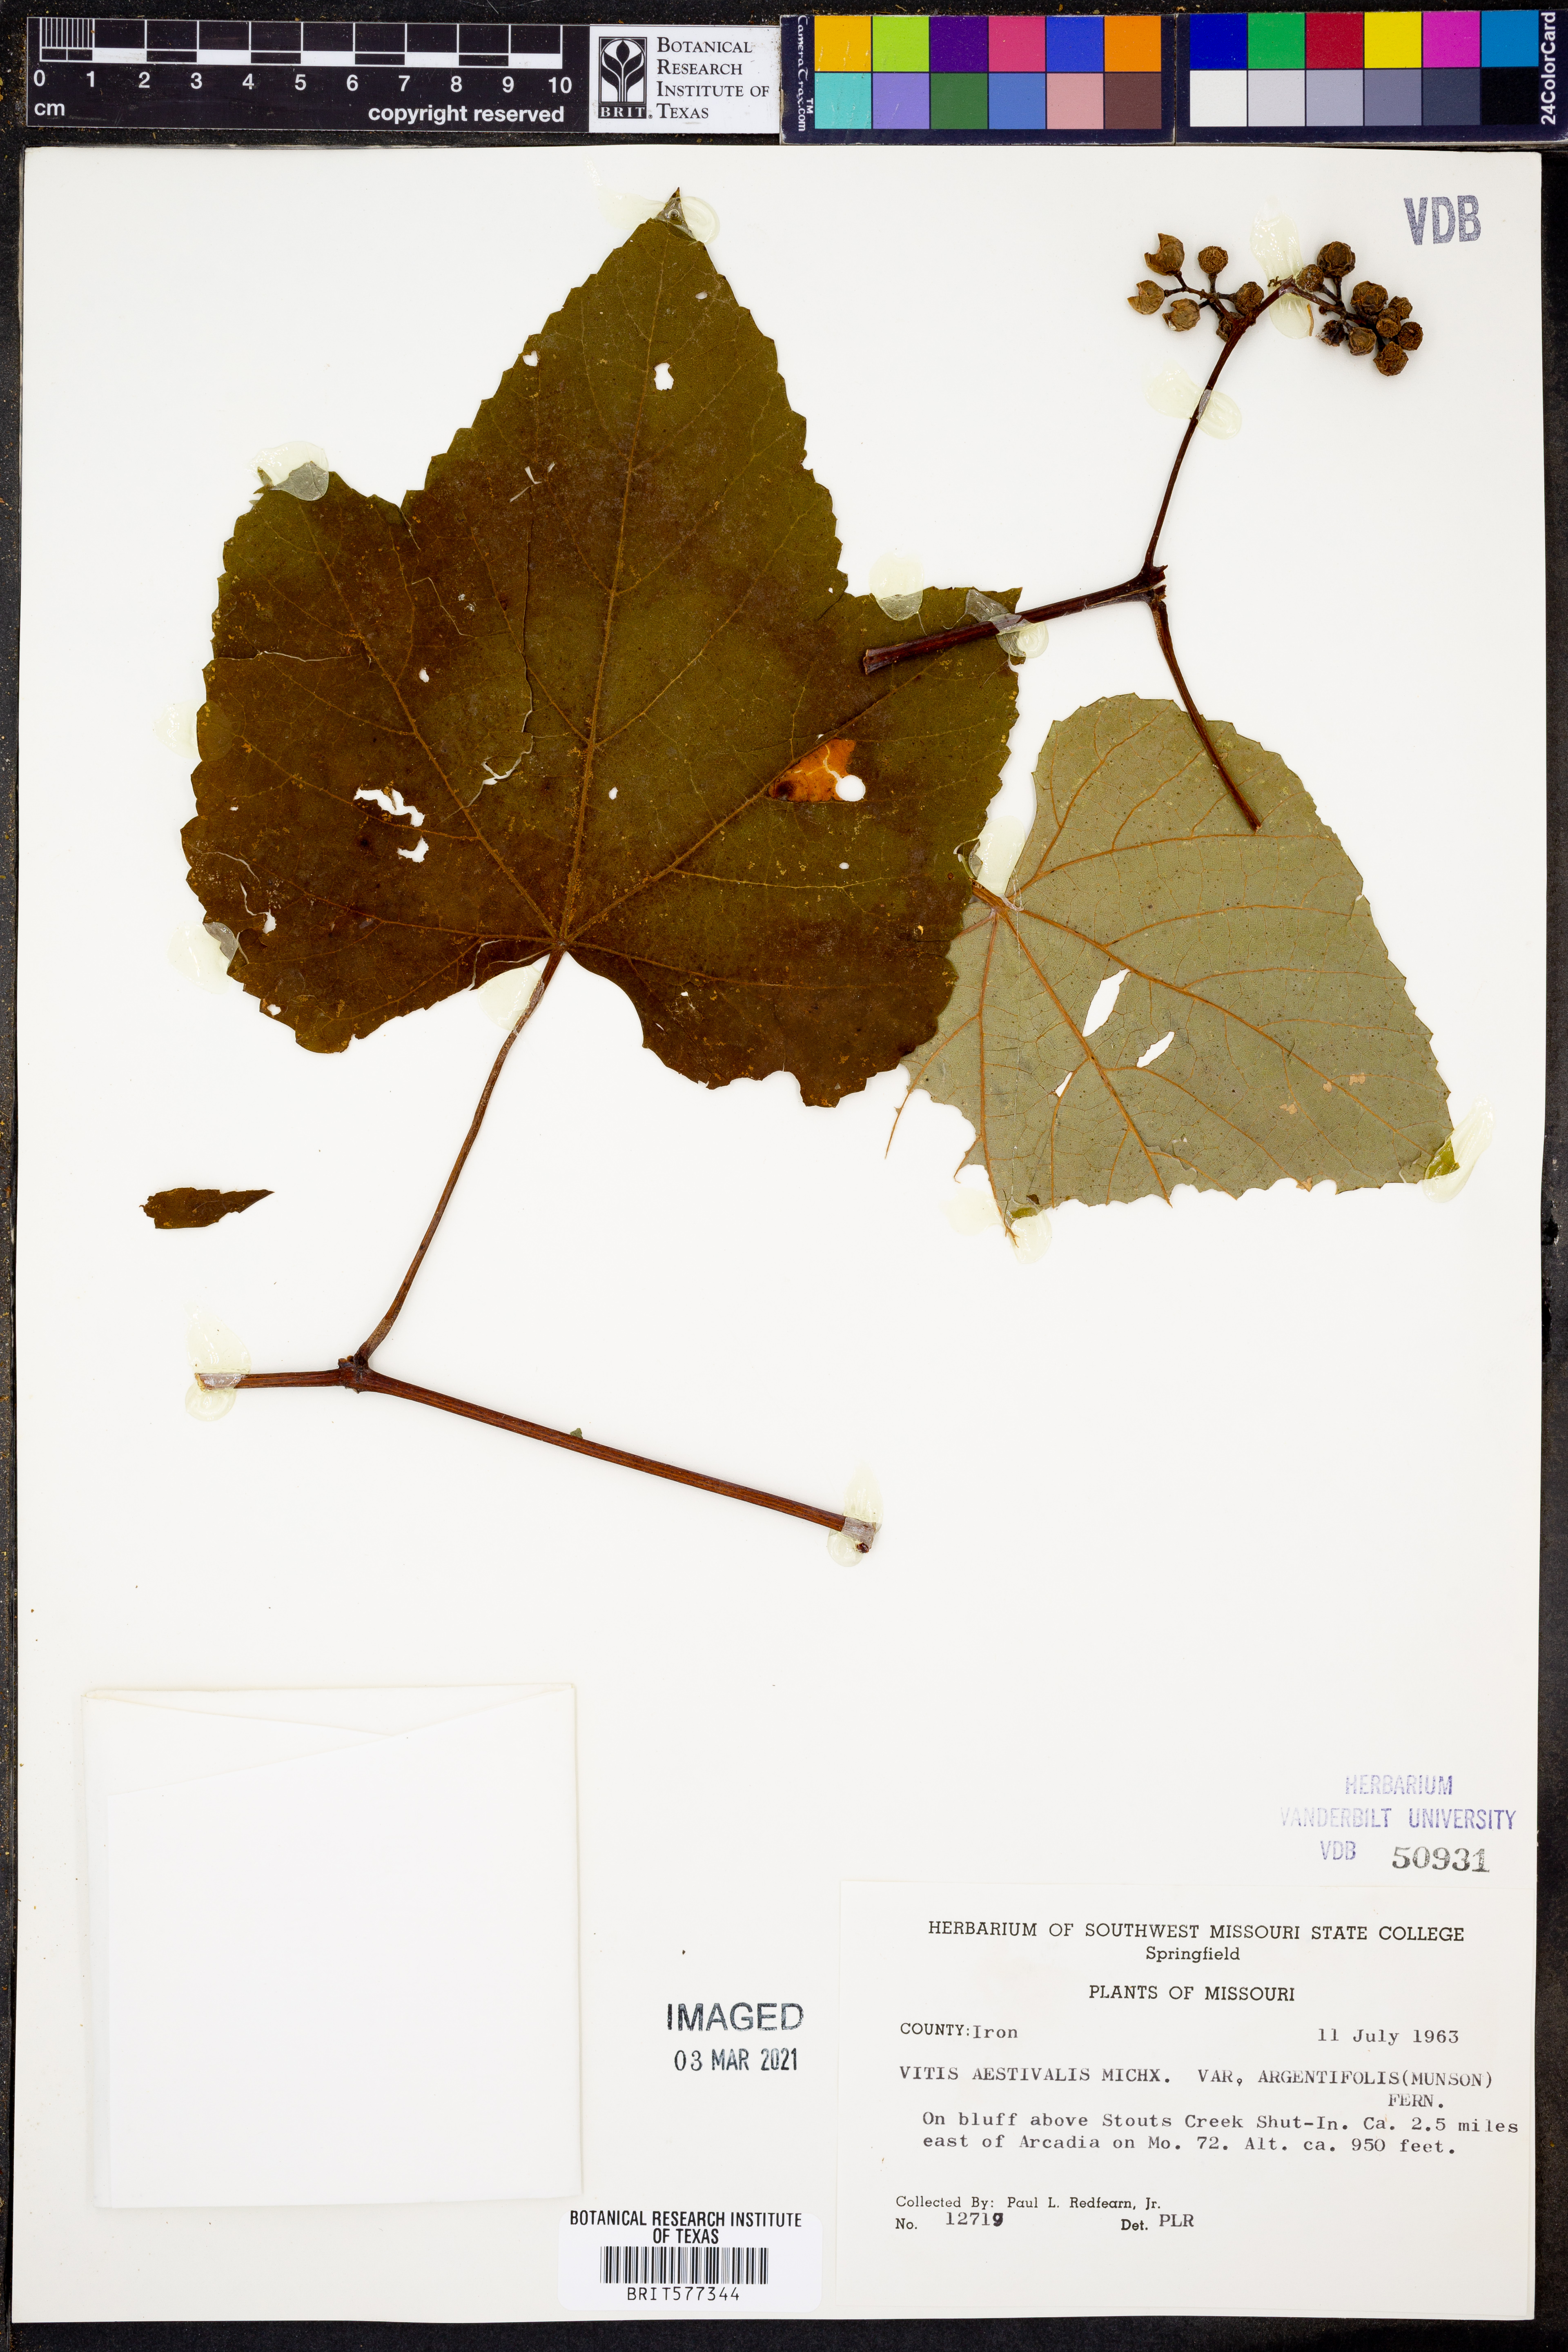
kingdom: Plantae
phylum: Tracheophyta
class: Magnoliopsida
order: Vitales
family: Vitaceae
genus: Vitis
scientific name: Vitis aestivalis
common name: Pigeon grape
